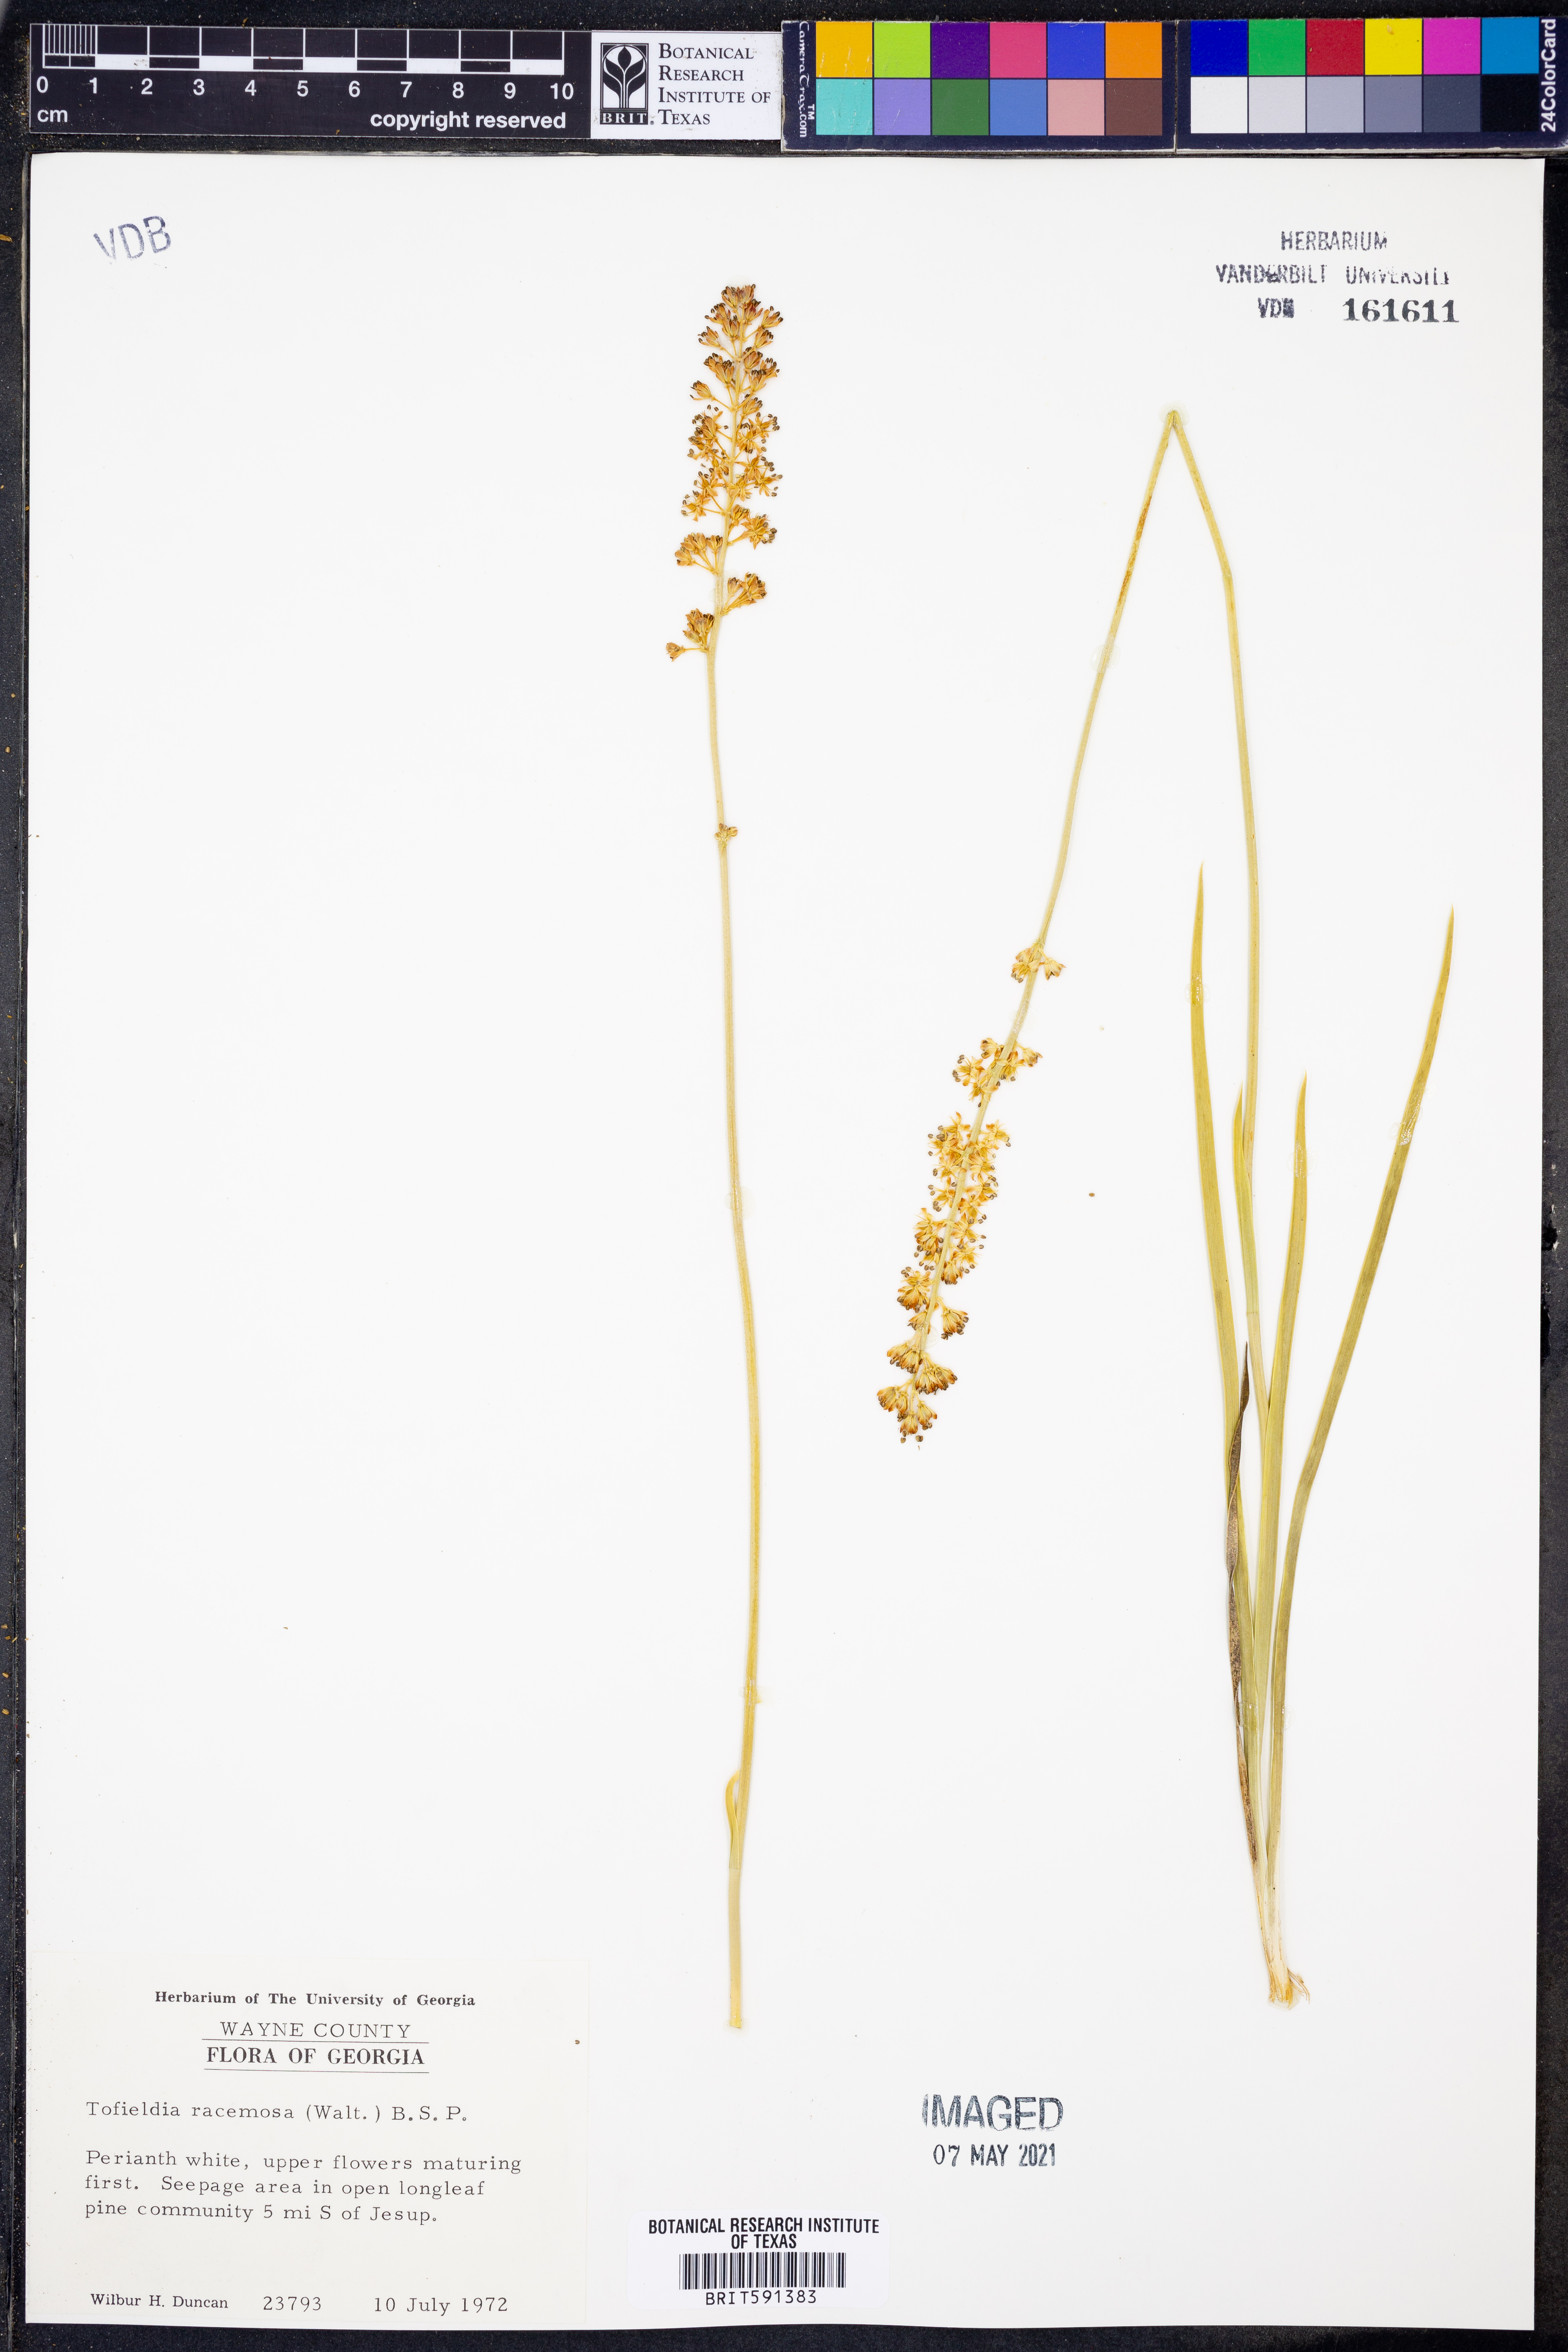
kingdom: Plantae
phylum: Tracheophyta
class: Liliopsida
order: Alismatales
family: Tofieldiaceae
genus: Triantha
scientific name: Triantha racemosa
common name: Coastal false asphodel
